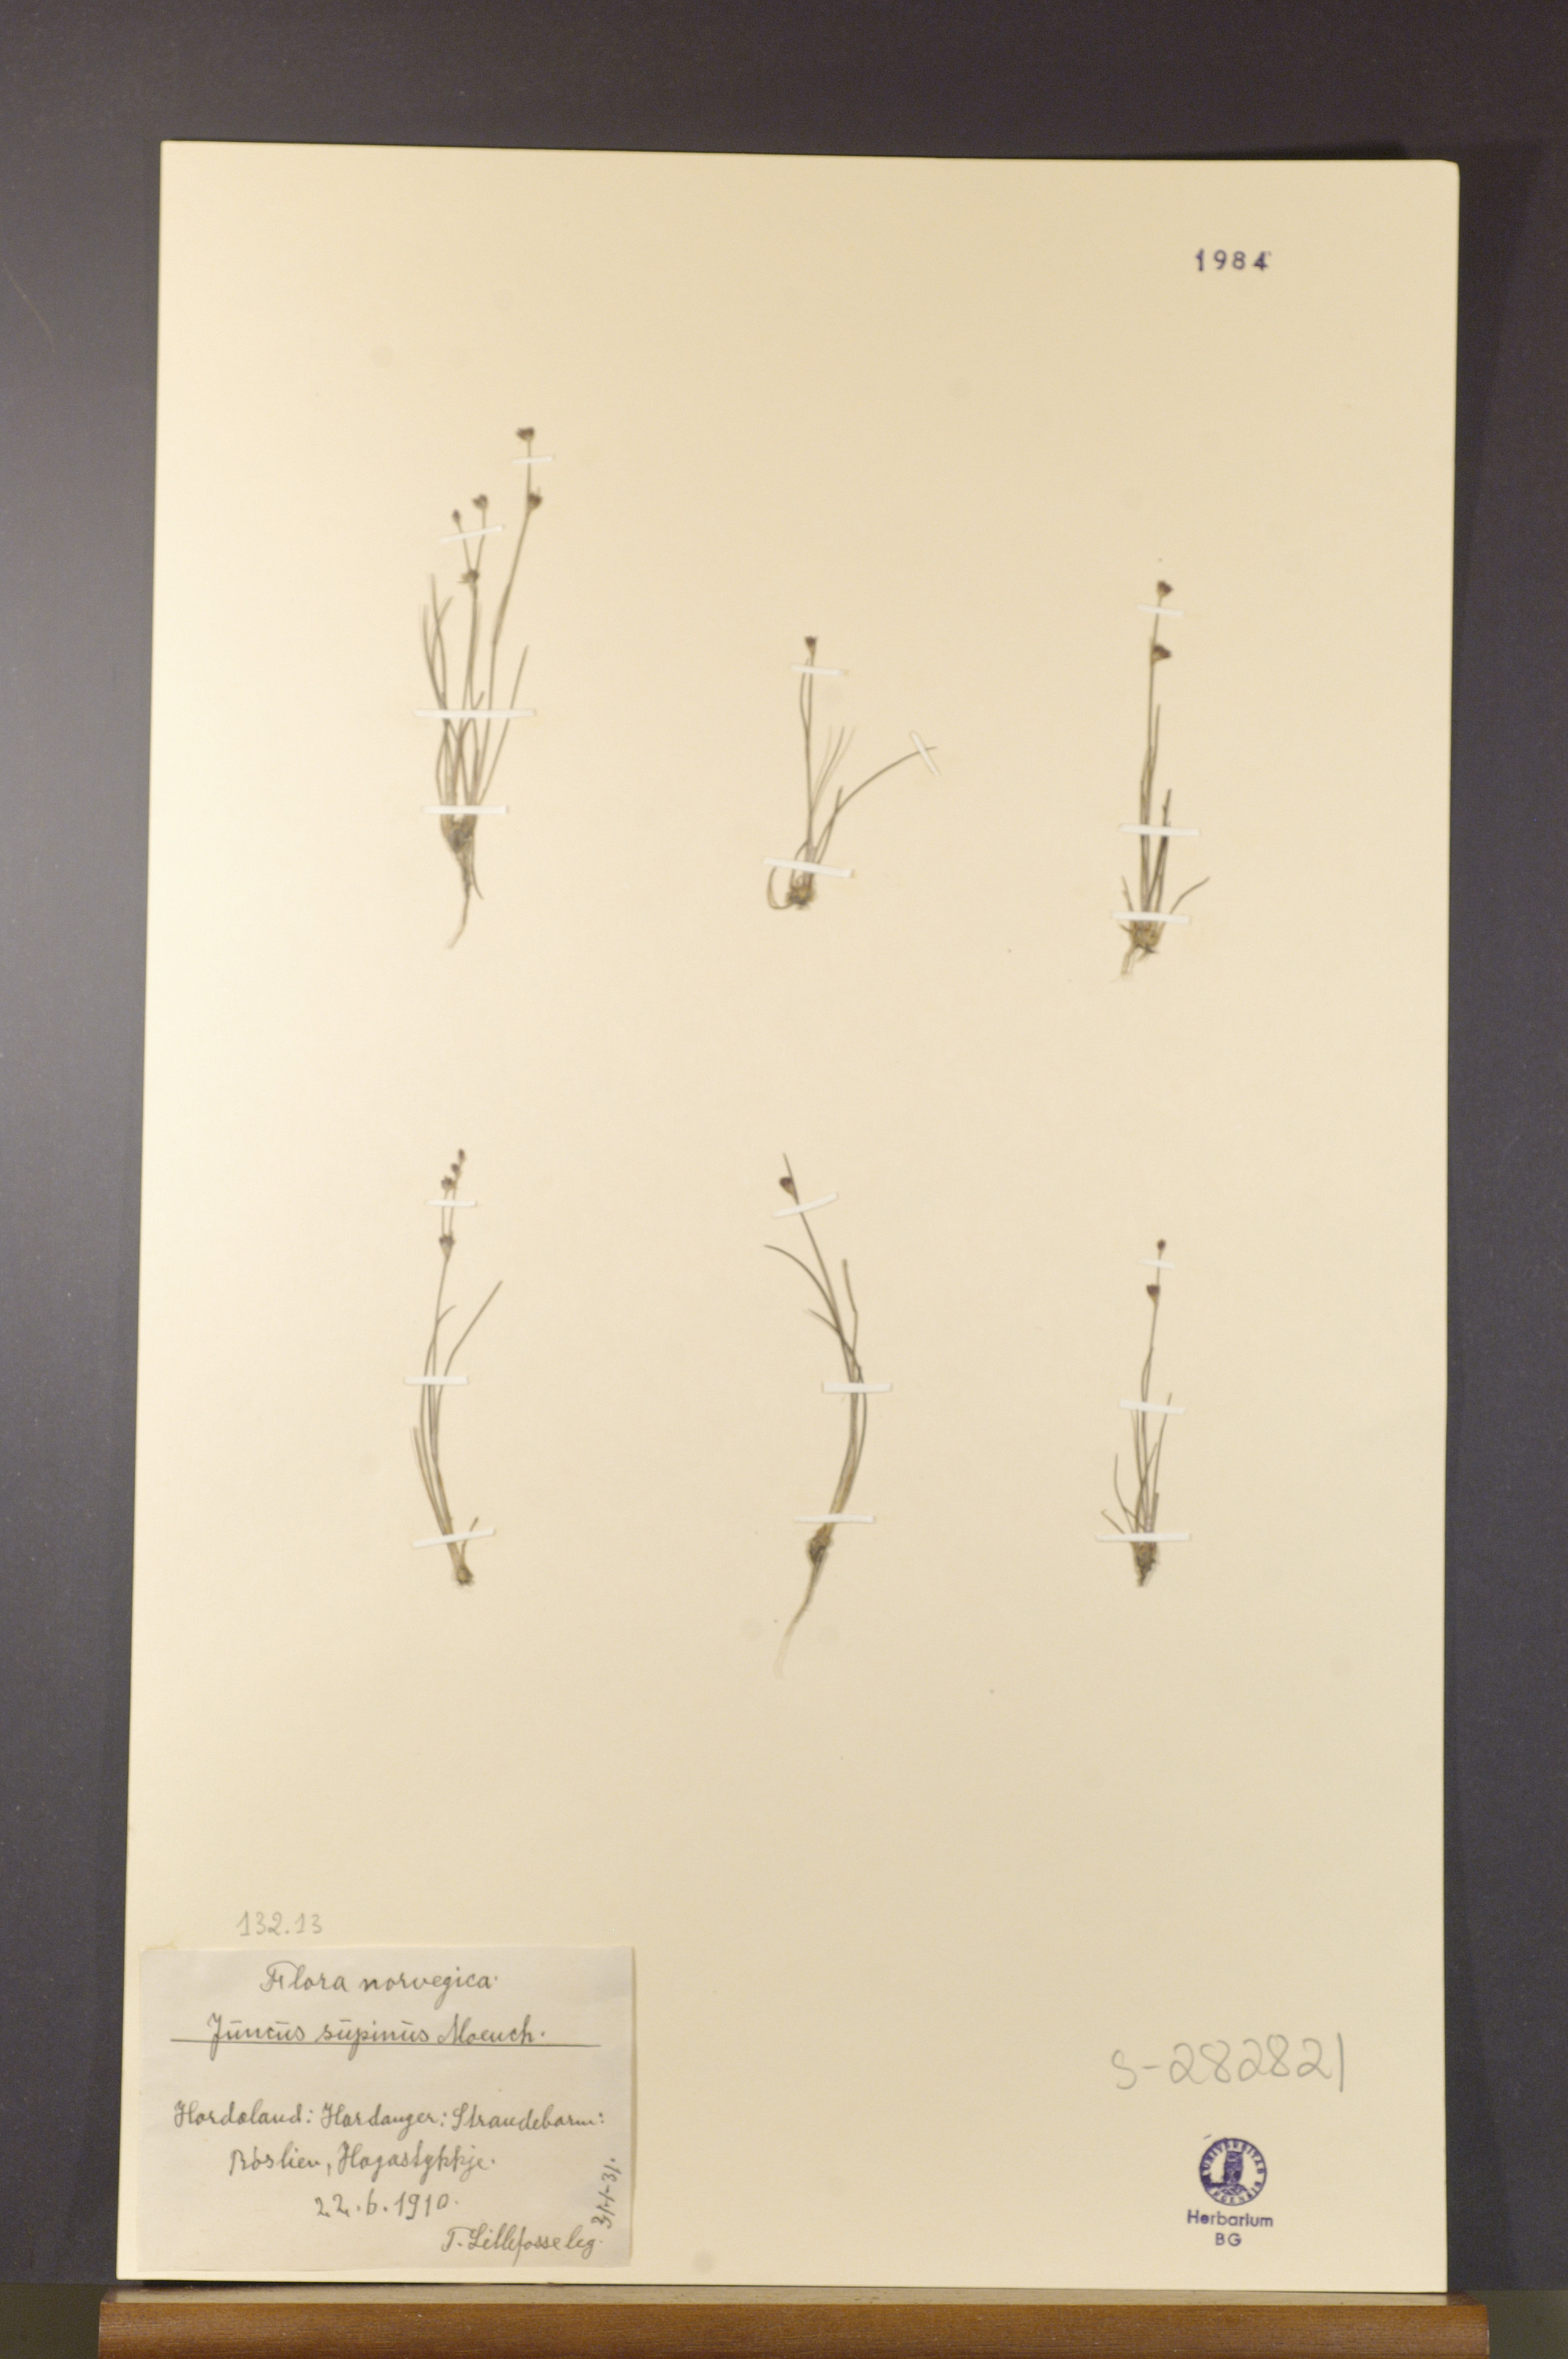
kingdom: Plantae
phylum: Tracheophyta
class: Liliopsida
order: Poales
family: Juncaceae
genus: Juncus
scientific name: Juncus bulbosus
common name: Bulbous rush
